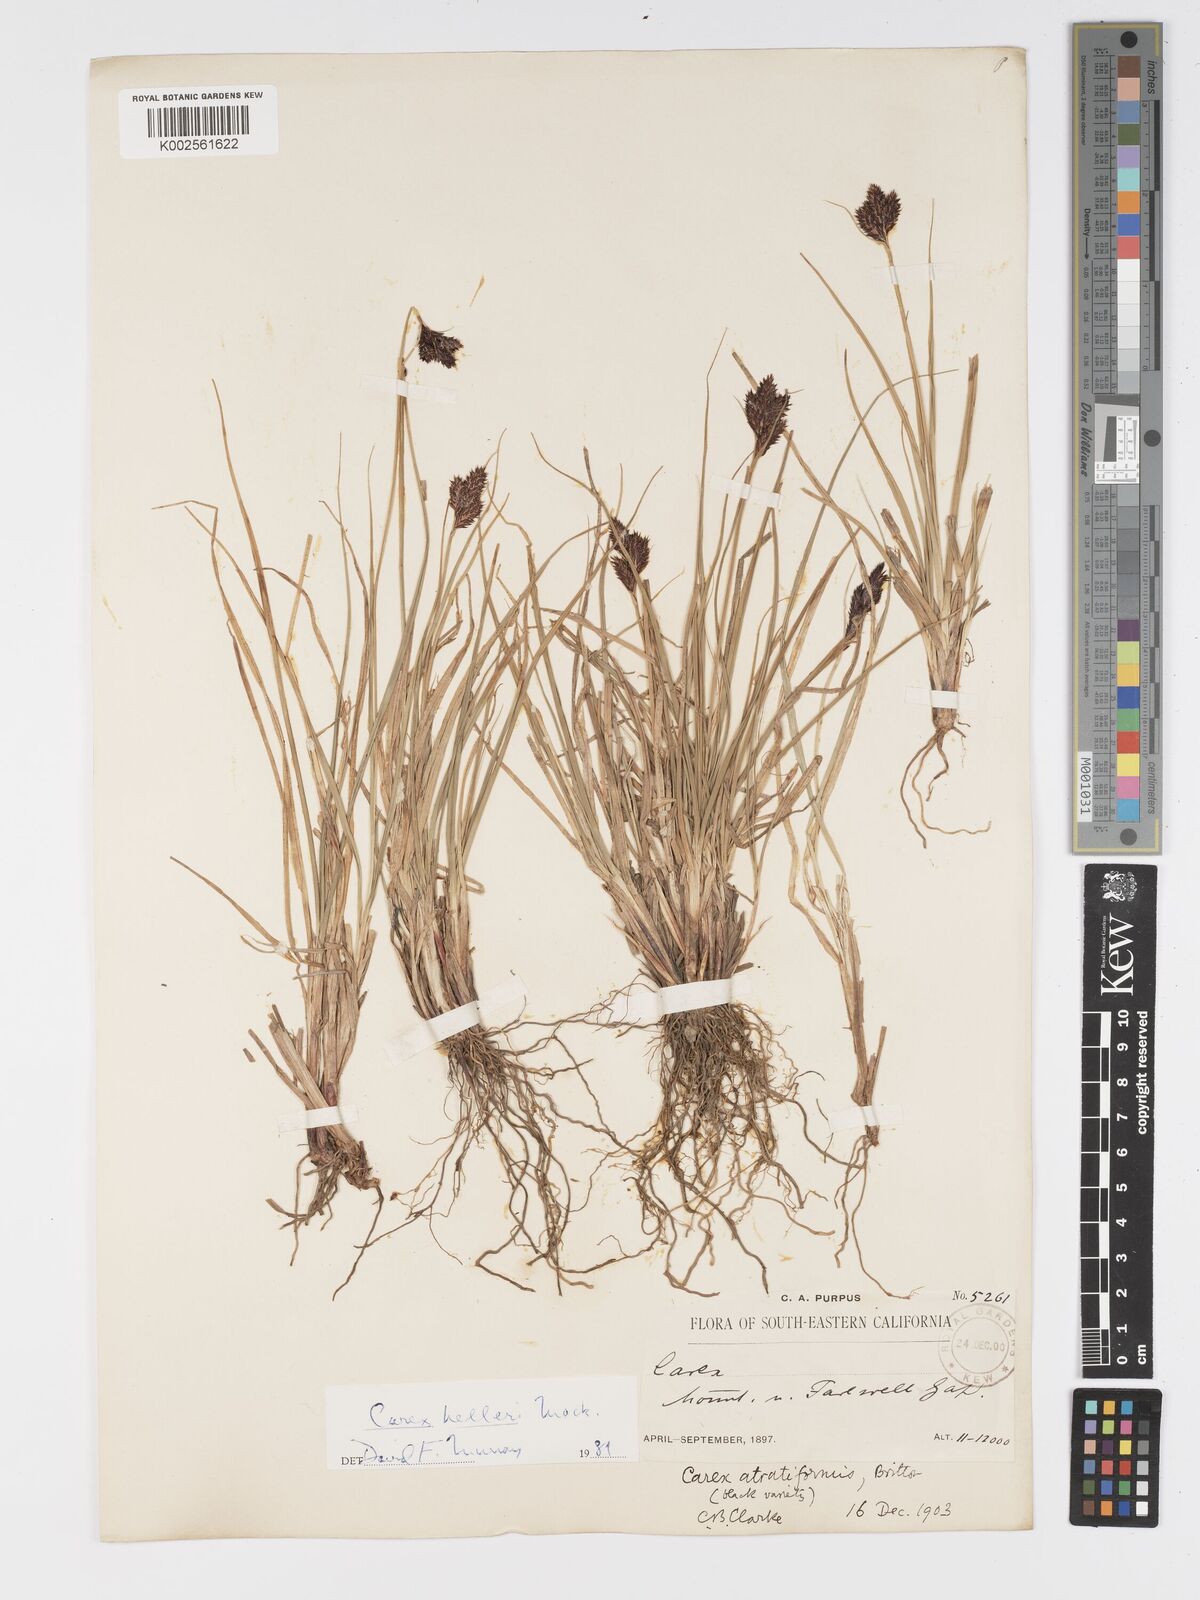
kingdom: Plantae
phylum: Tracheophyta
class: Liliopsida
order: Poales
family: Cyperaceae
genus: Carex
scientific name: Carex helleri
